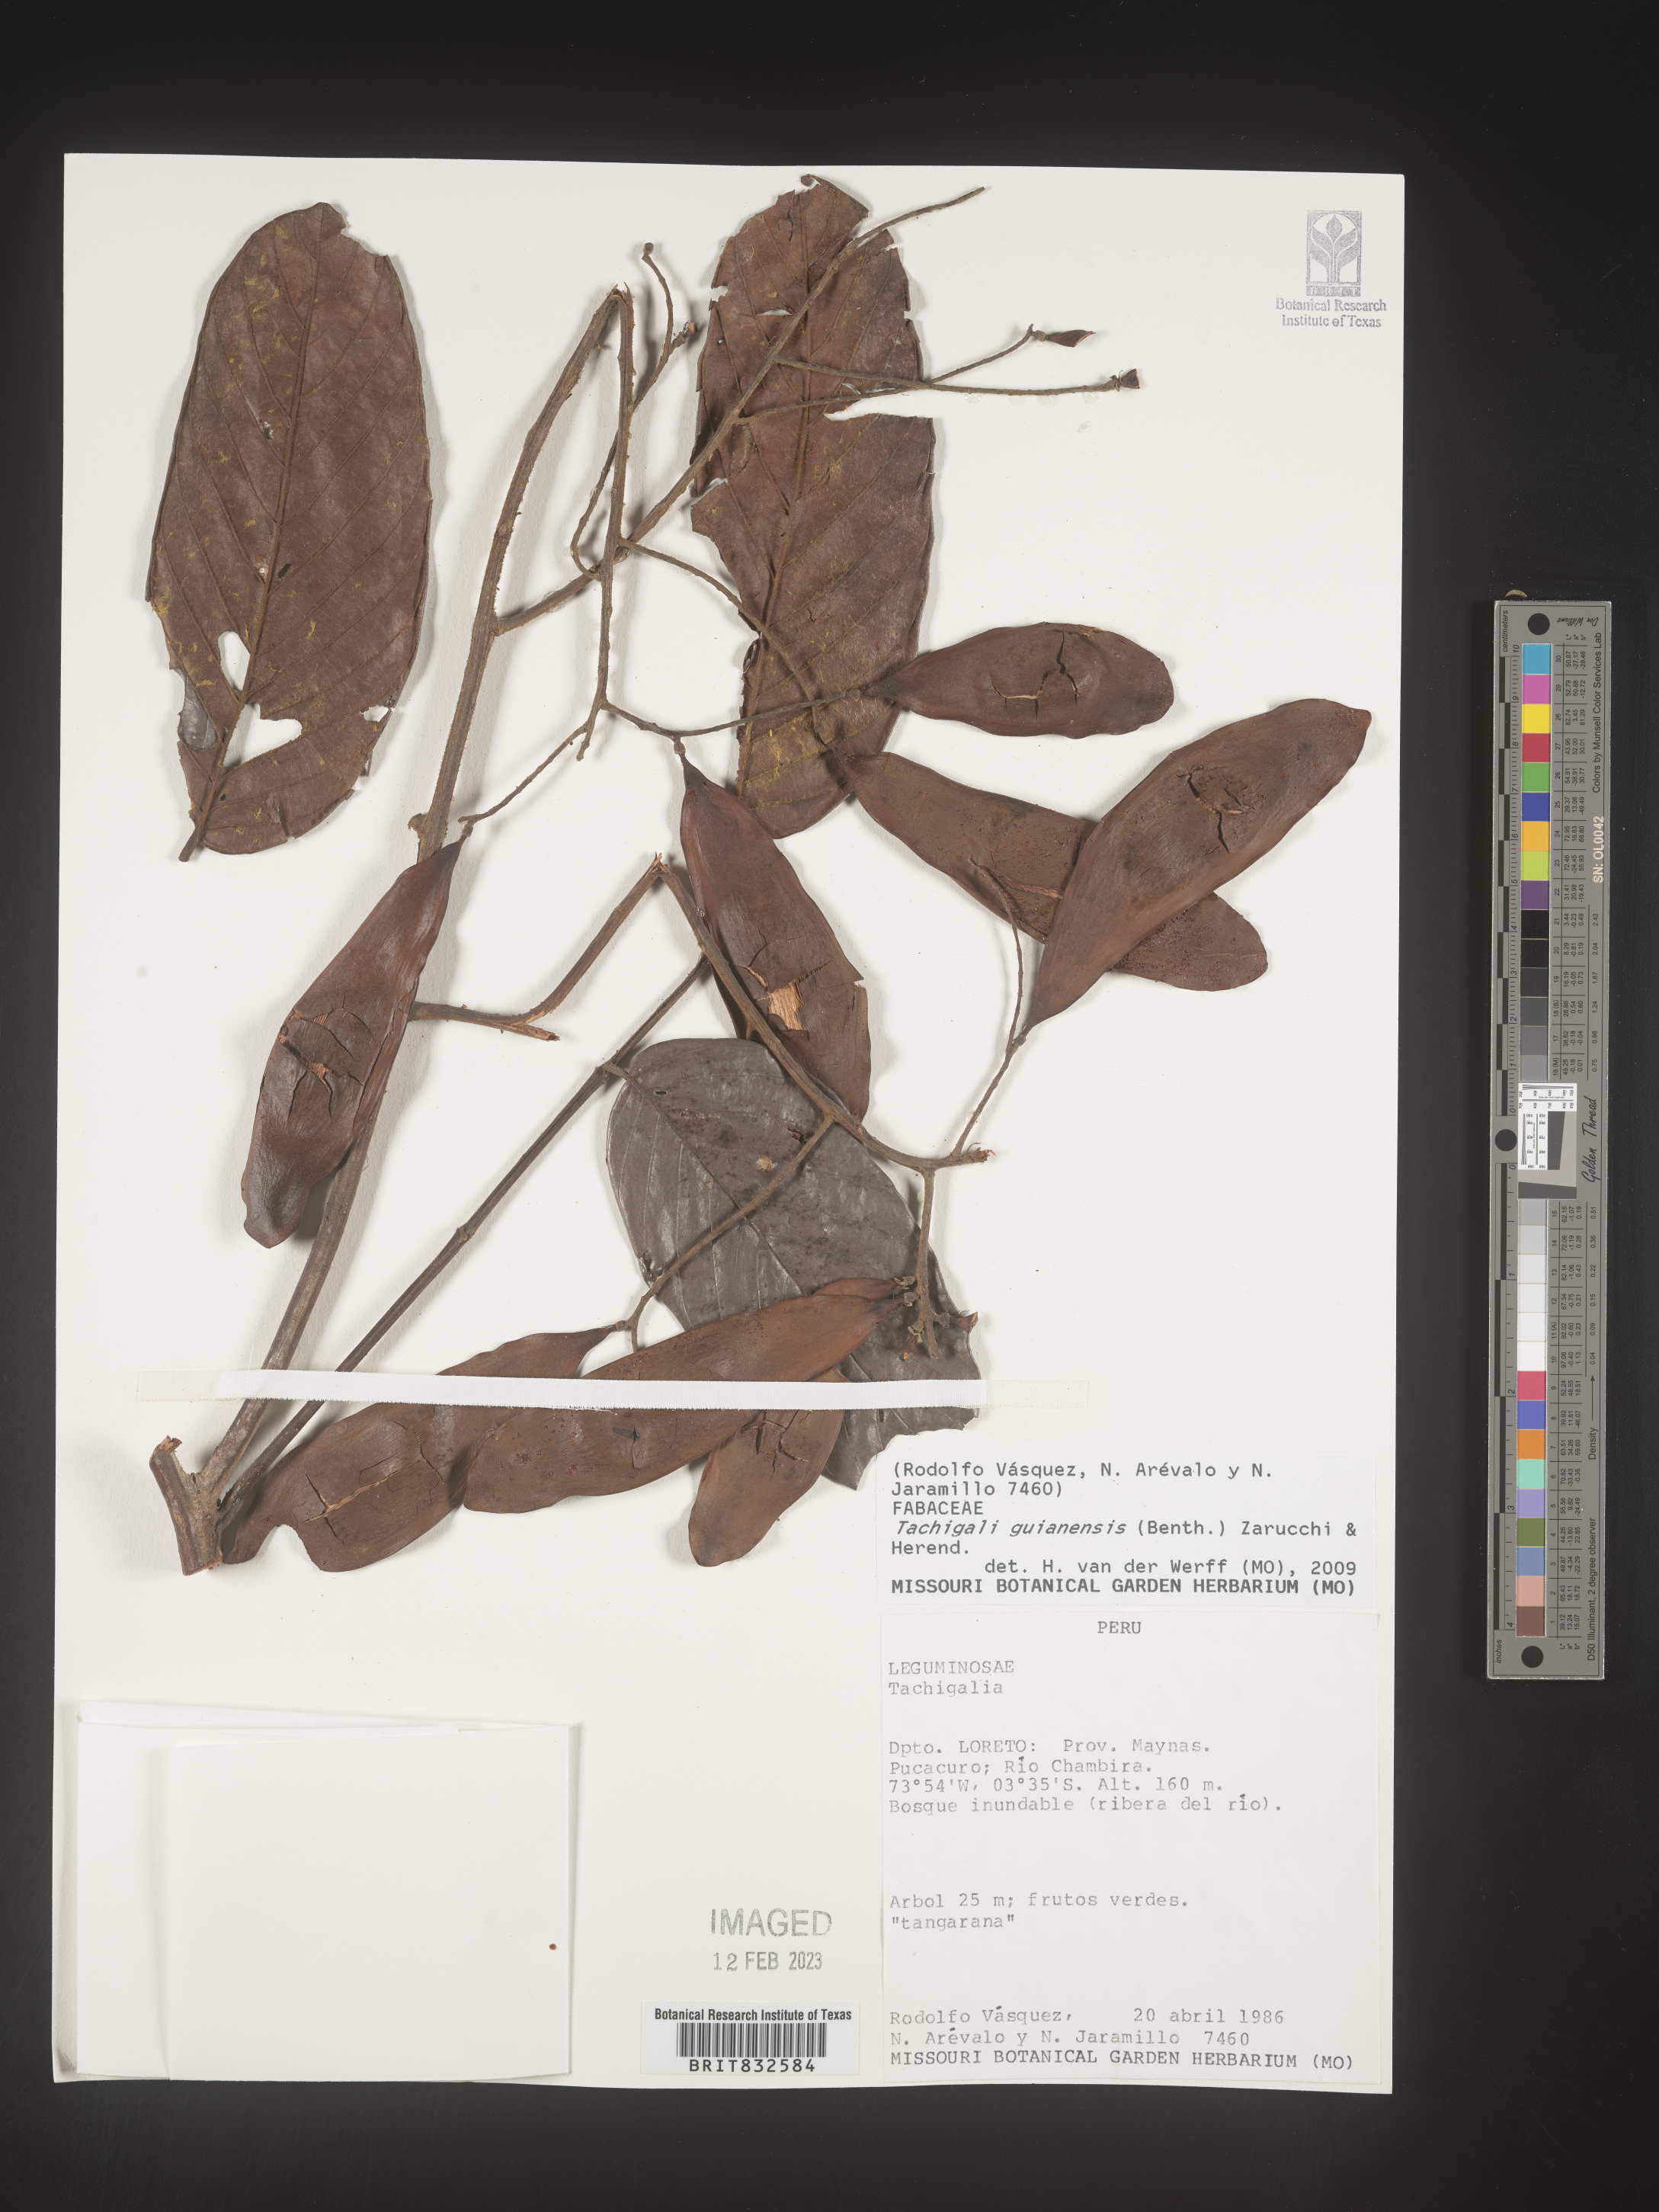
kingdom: Plantae
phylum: Tracheophyta
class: Magnoliopsida
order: Fabales
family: Fabaceae
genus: Tachigali
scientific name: Tachigali
